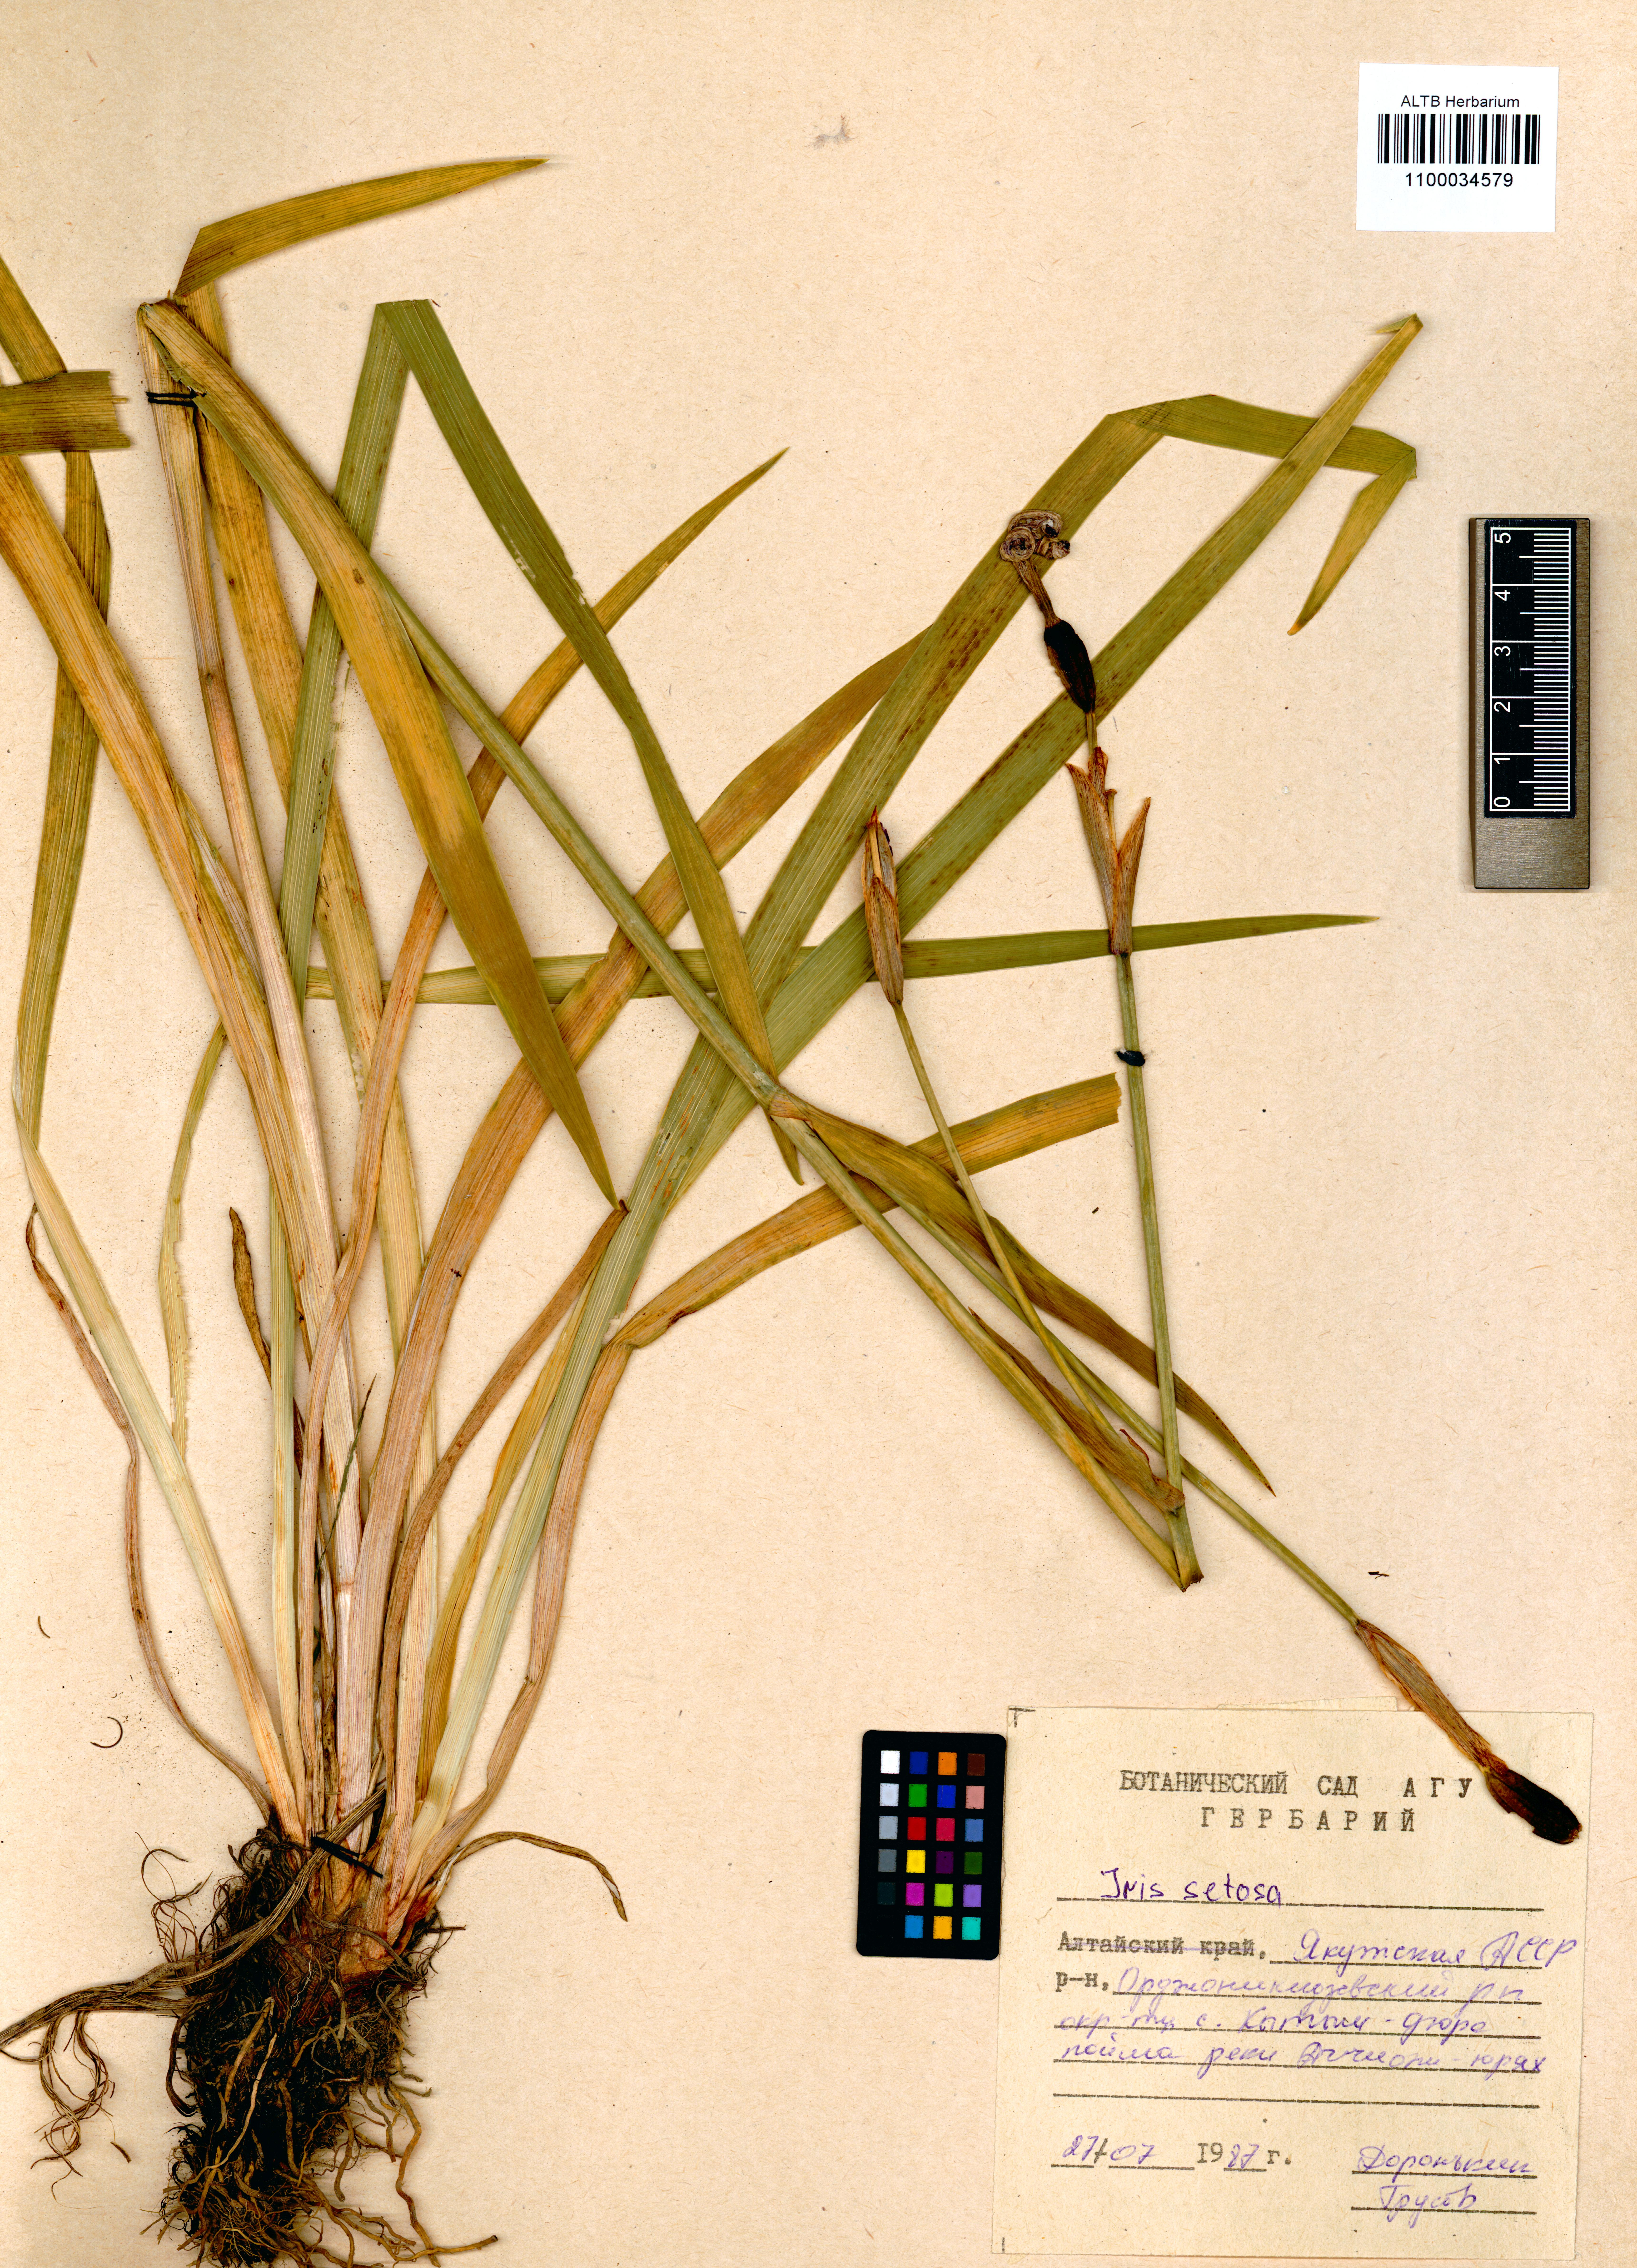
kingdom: Plantae
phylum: Tracheophyta
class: Liliopsida
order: Asparagales
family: Iridaceae
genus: Iris
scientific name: Iris setosa
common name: Arctic blue flag
